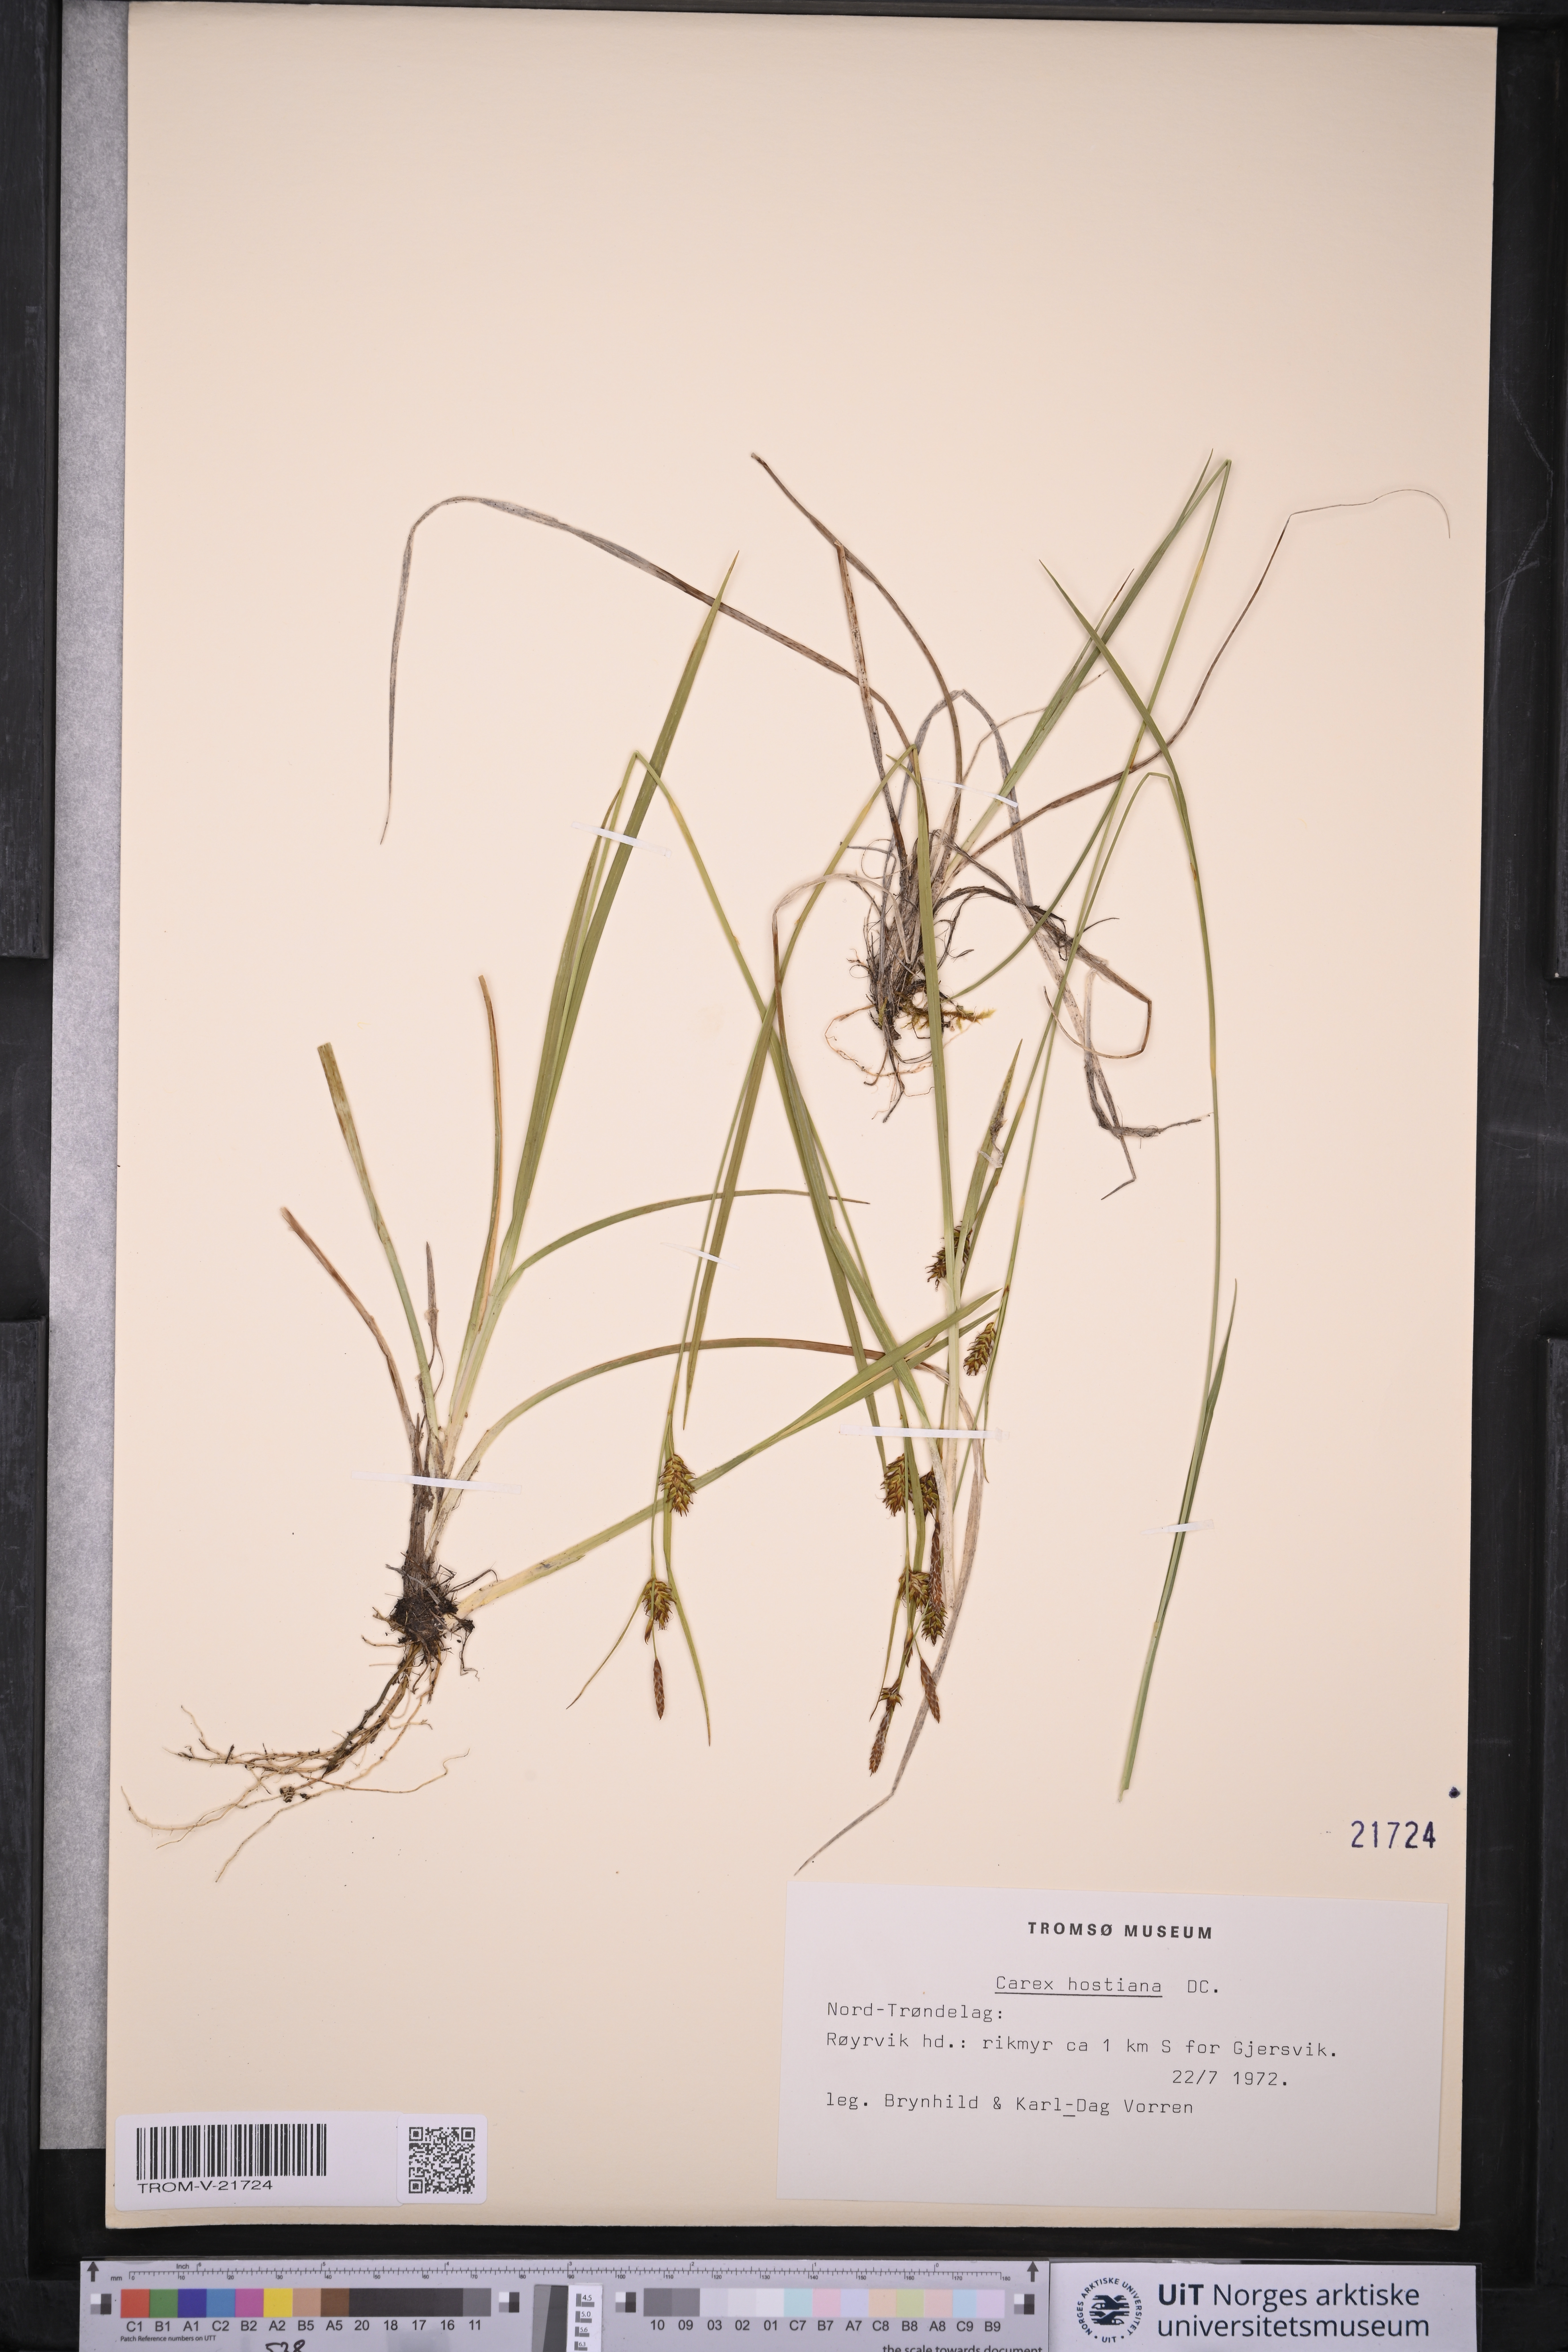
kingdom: Plantae
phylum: Tracheophyta
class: Liliopsida
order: Poales
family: Cyperaceae
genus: Carex
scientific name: Carex hostiana
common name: Tawny sedge
